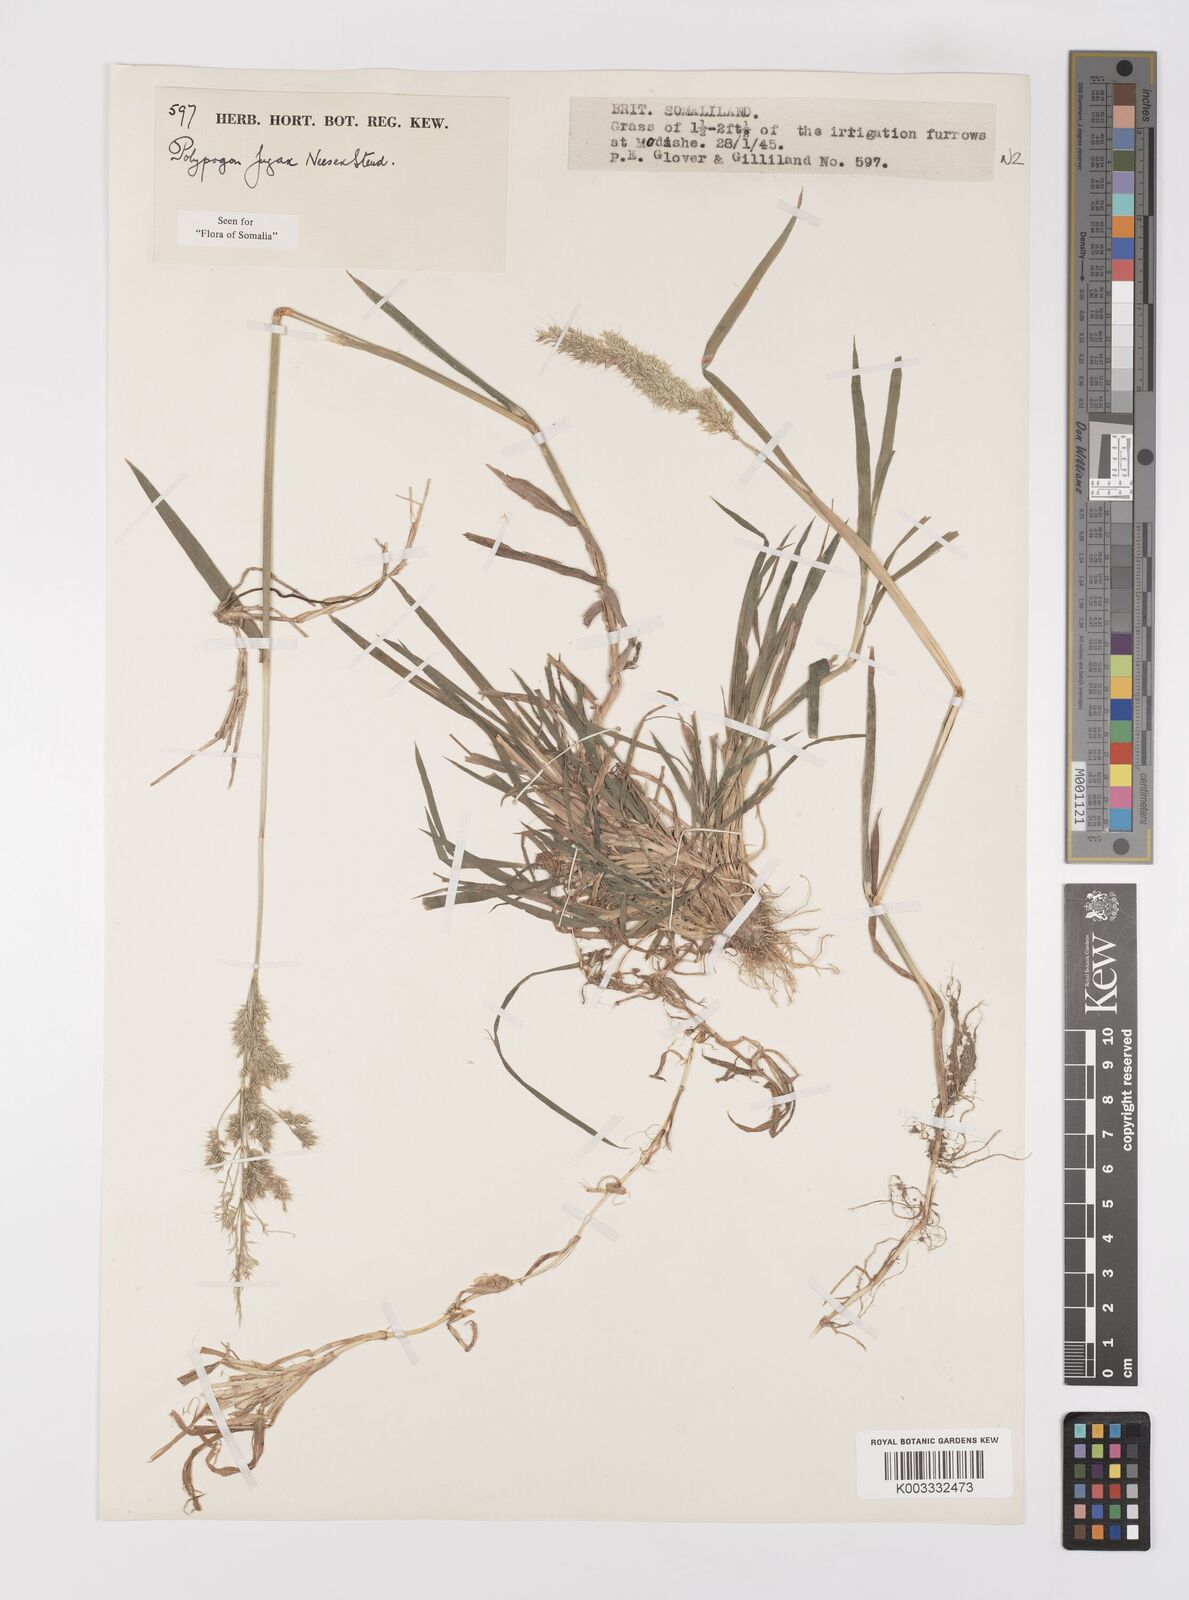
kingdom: Plantae
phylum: Tracheophyta
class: Liliopsida
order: Poales
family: Poaceae
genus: Polypogon
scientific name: Polypogon fugax
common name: Asia minor bluegrass
